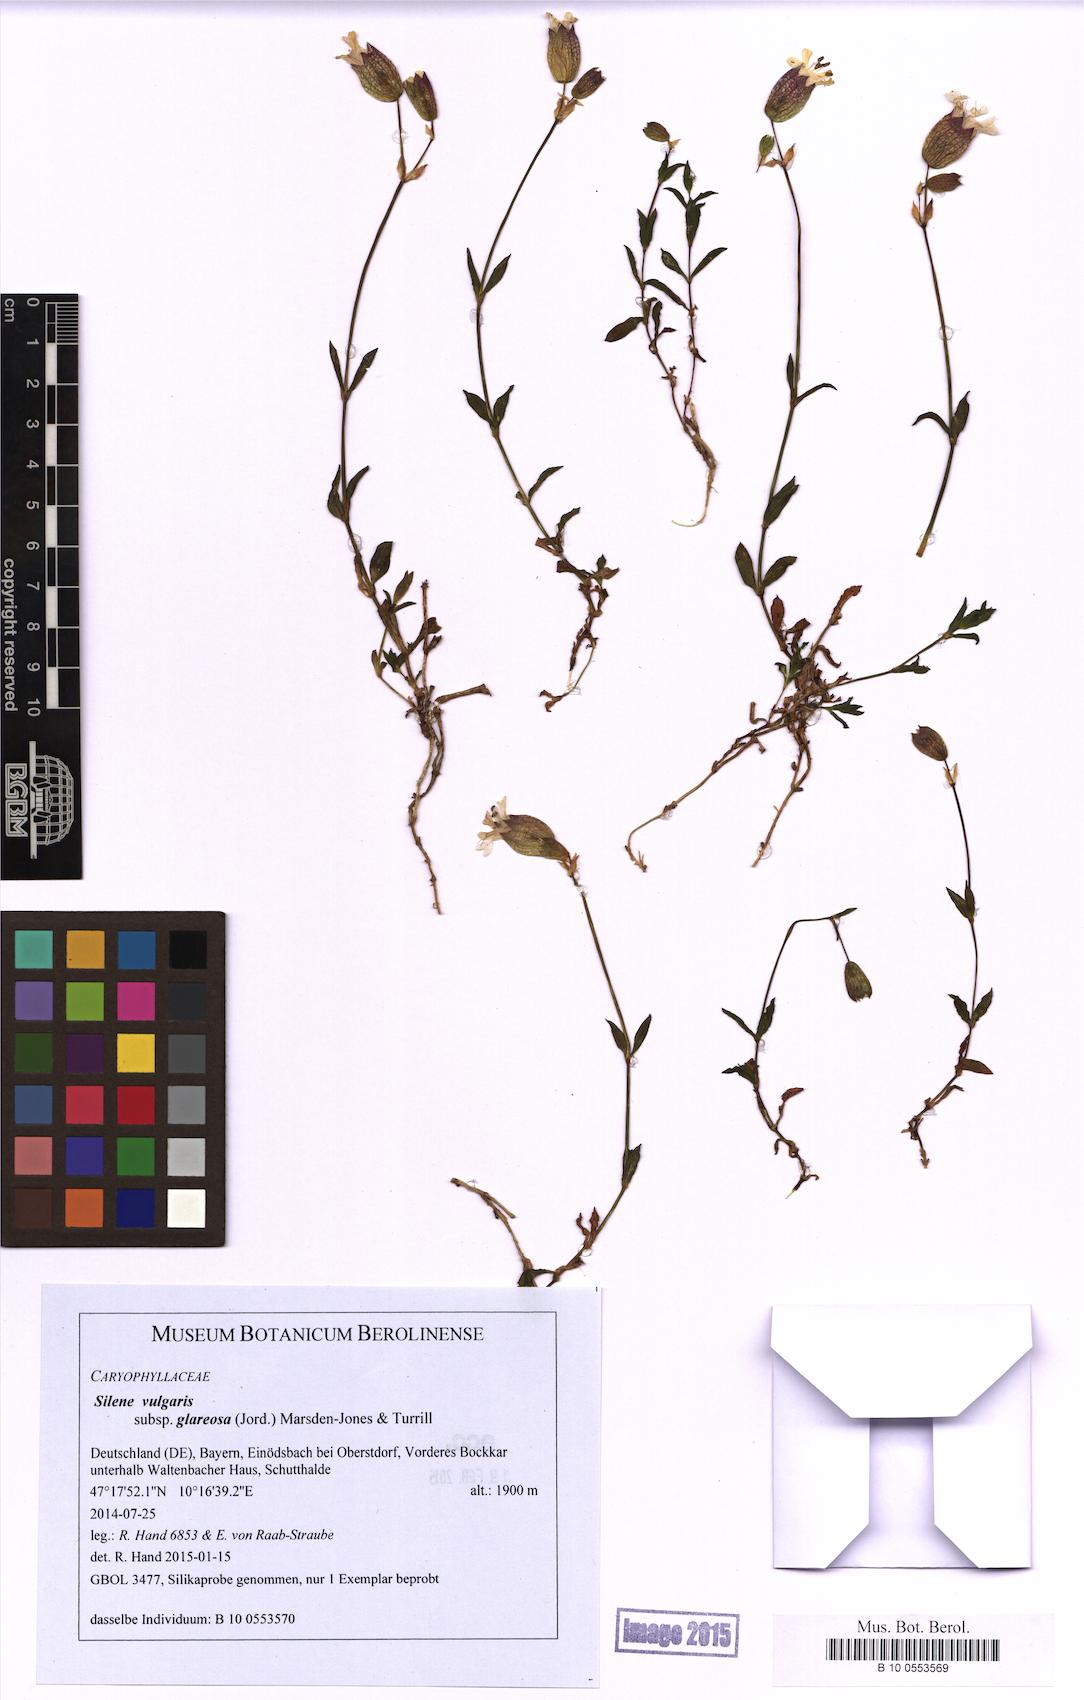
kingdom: Plantae
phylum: Tracheophyta
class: Magnoliopsida
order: Caryophyllales
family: Caryophyllaceae
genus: Silene
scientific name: Silene glareosa
